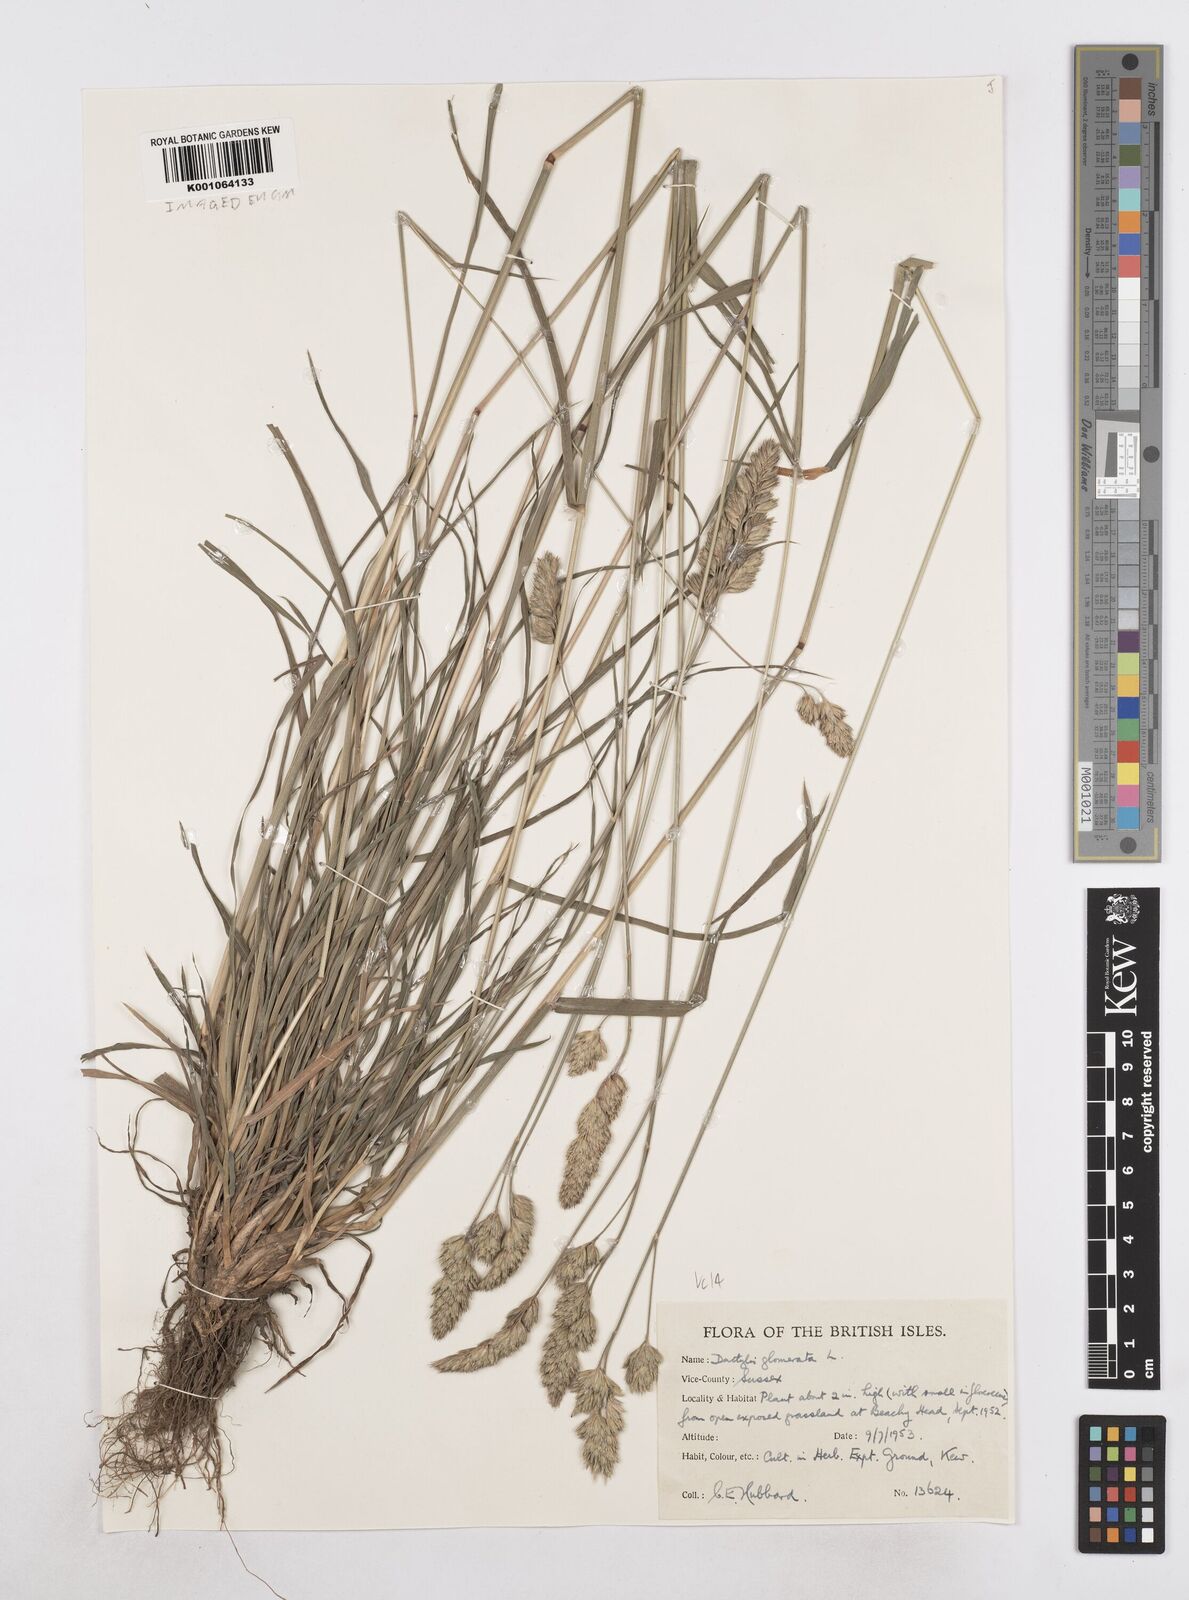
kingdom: Plantae
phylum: Tracheophyta
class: Liliopsida
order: Poales
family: Poaceae
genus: Dactylis
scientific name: Dactylis glomerata
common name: Orchardgrass
